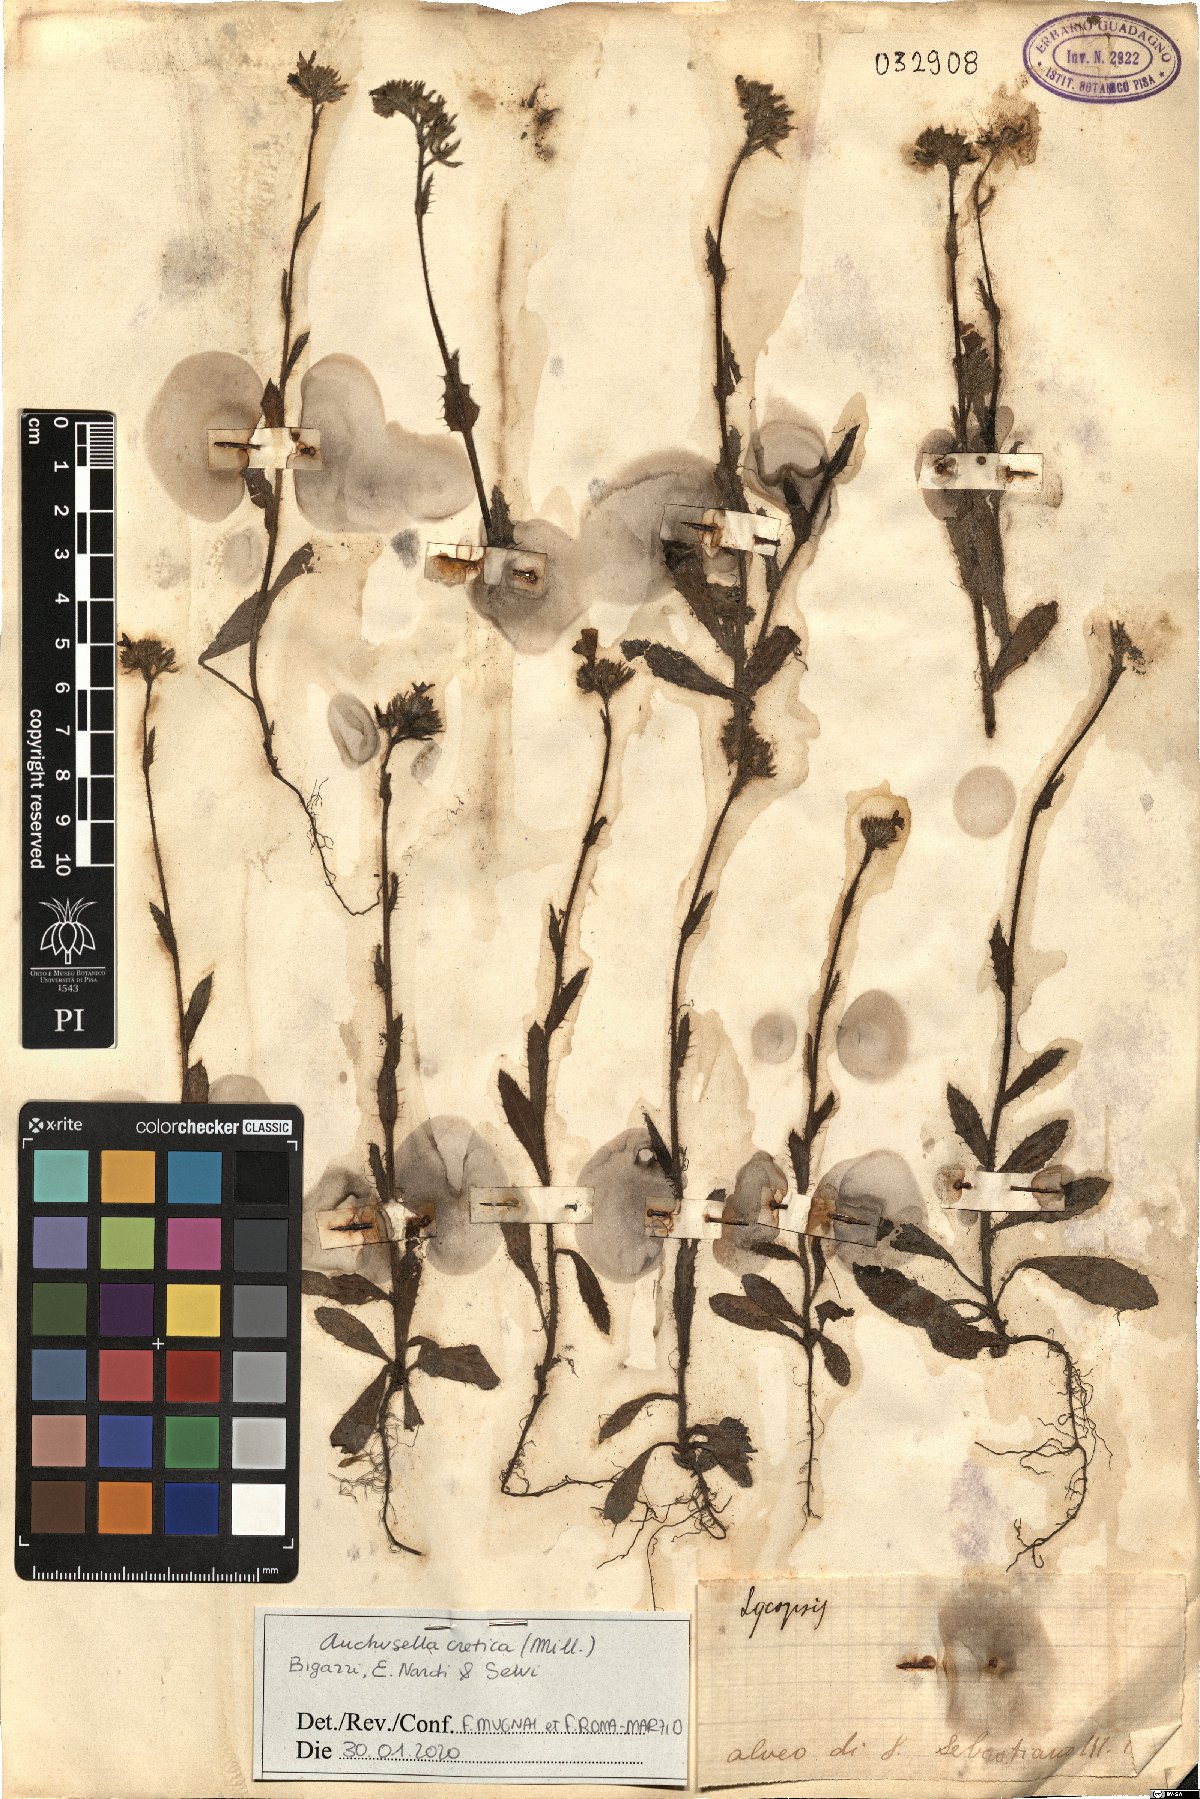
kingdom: Plantae
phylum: Tracheophyta
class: Magnoliopsida
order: Boraginales
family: Boraginaceae
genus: Anchusella
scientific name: Anchusella cretica
